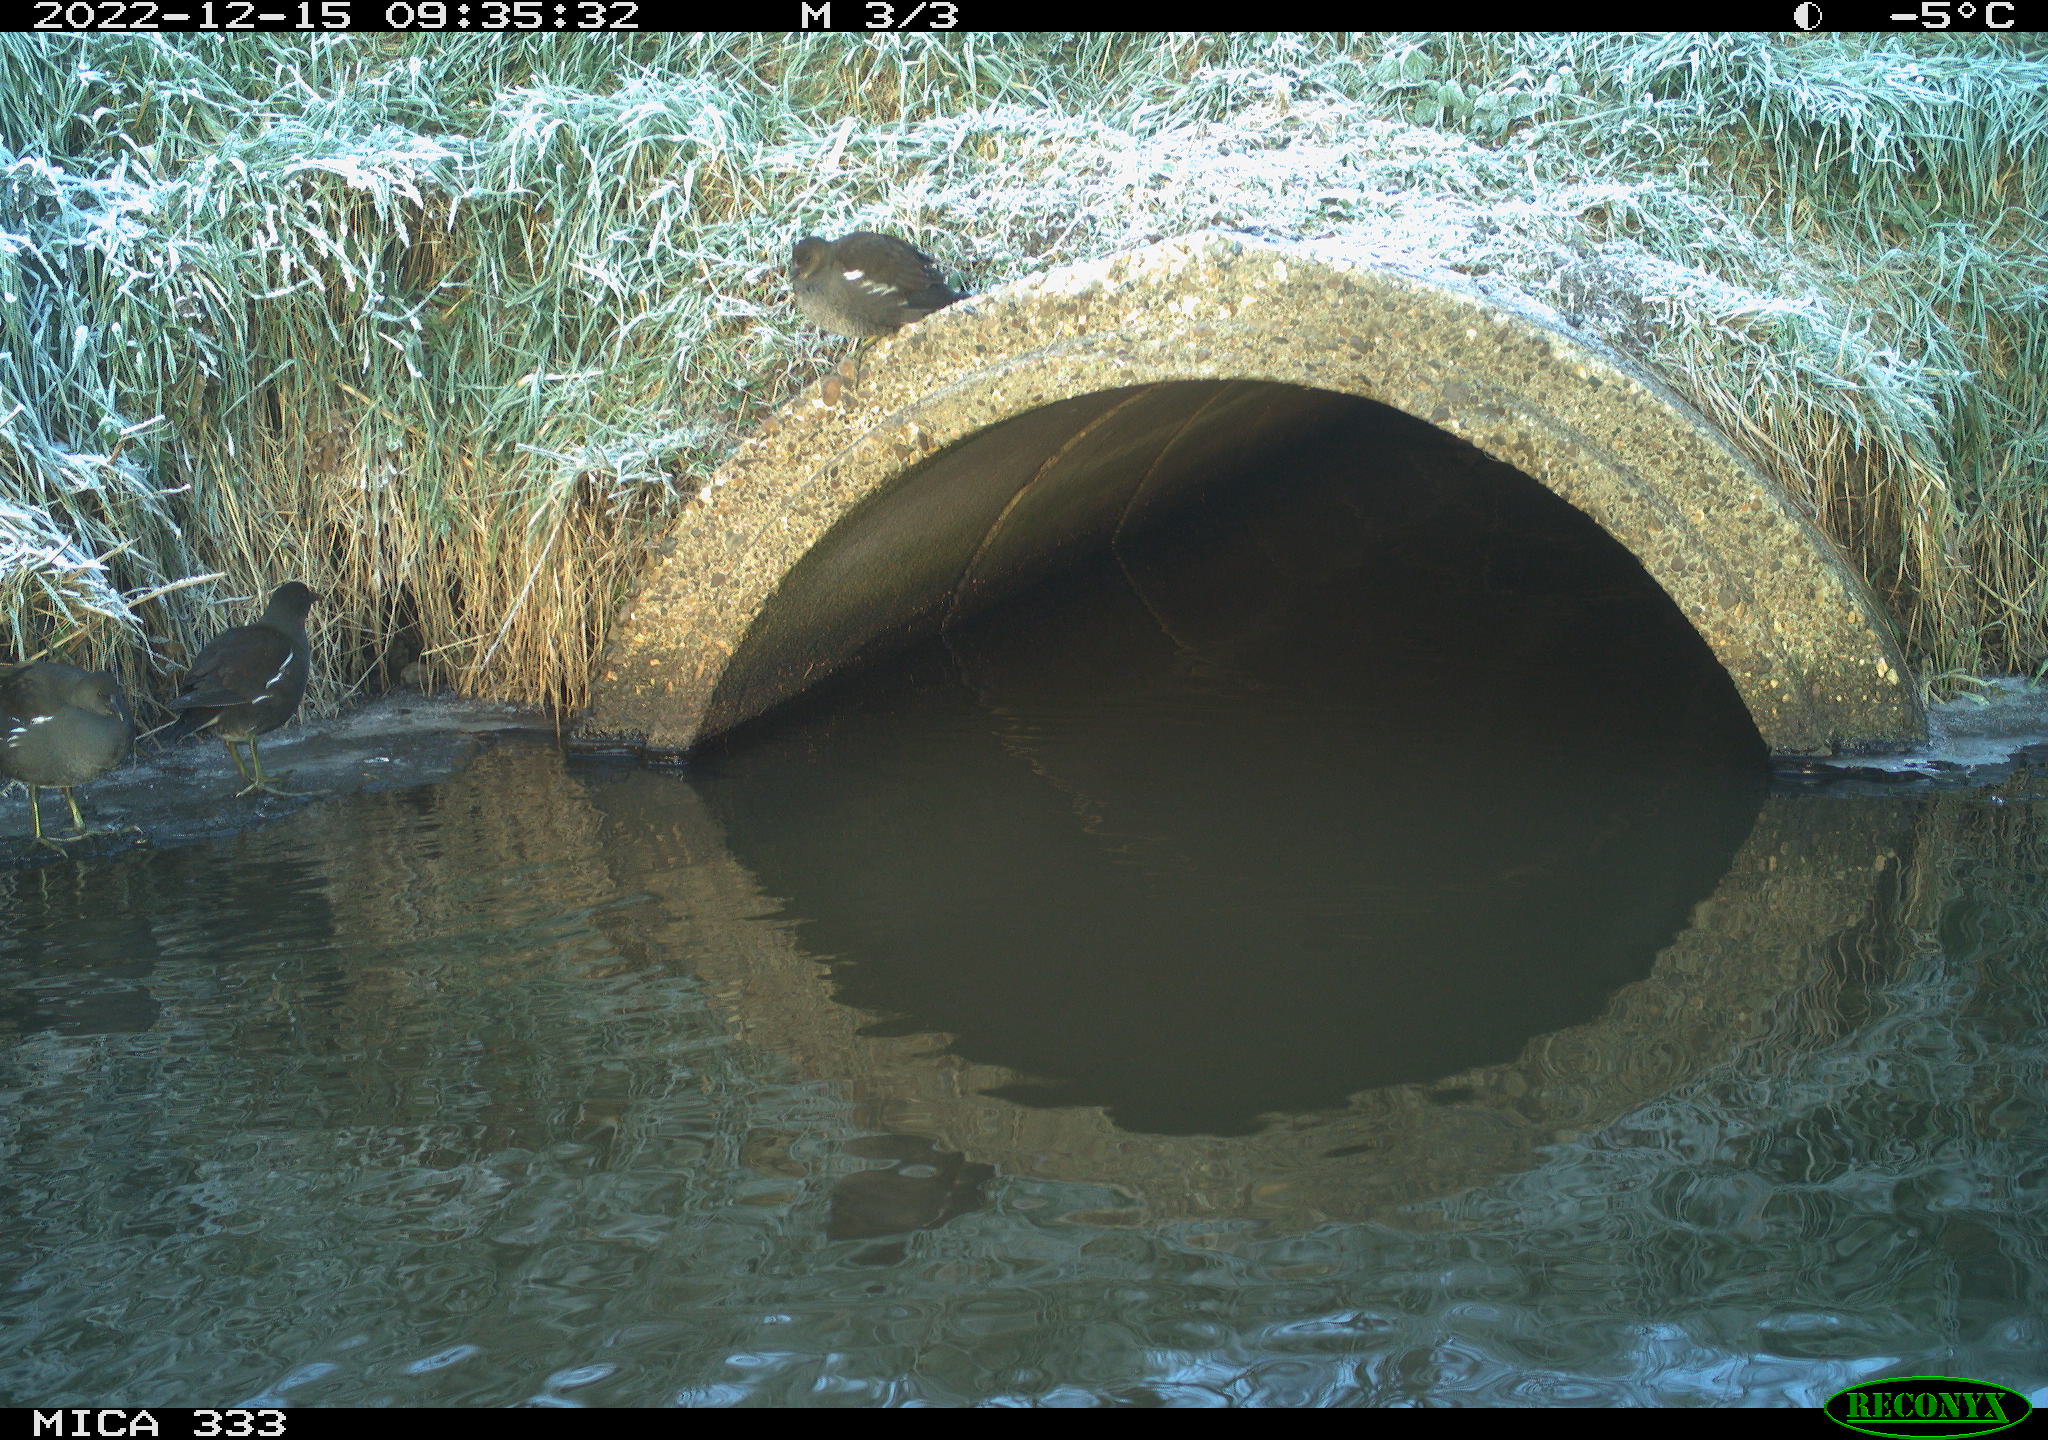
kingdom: Animalia
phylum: Chordata
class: Aves
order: Gruiformes
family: Rallidae
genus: Gallinula
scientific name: Gallinula chloropus
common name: Common moorhen
